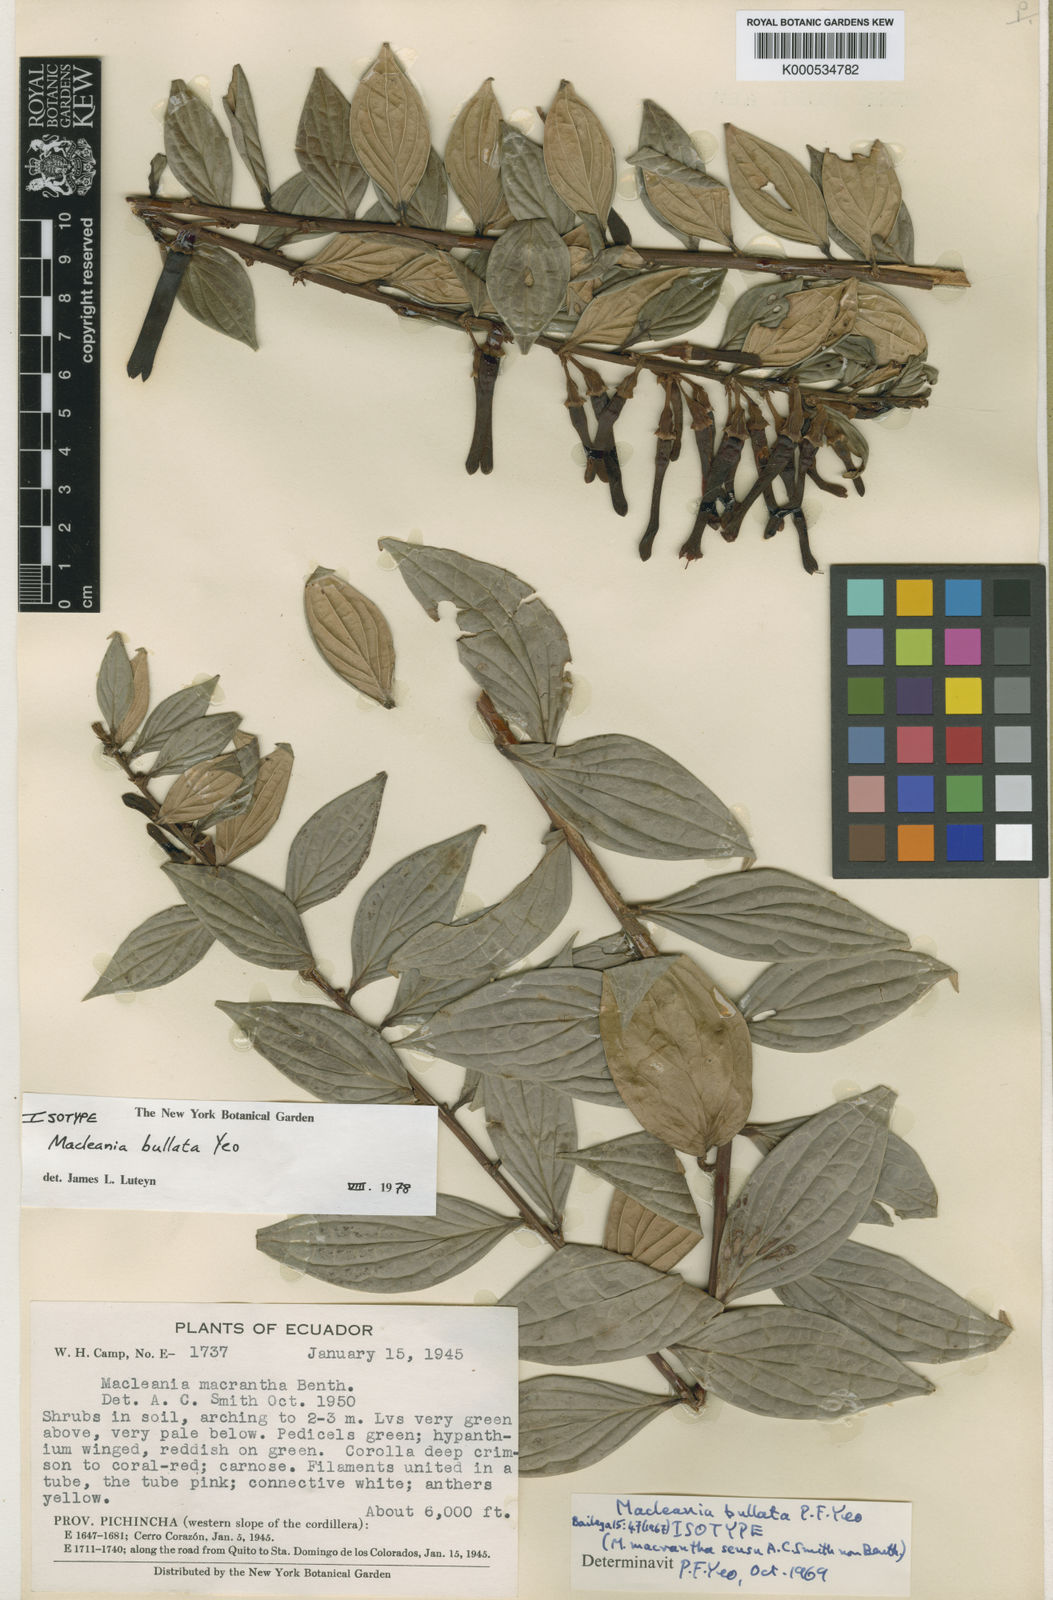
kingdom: Plantae
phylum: Tracheophyta
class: Magnoliopsida
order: Ericales
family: Ericaceae
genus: Macleania
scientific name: Macleania bullata
